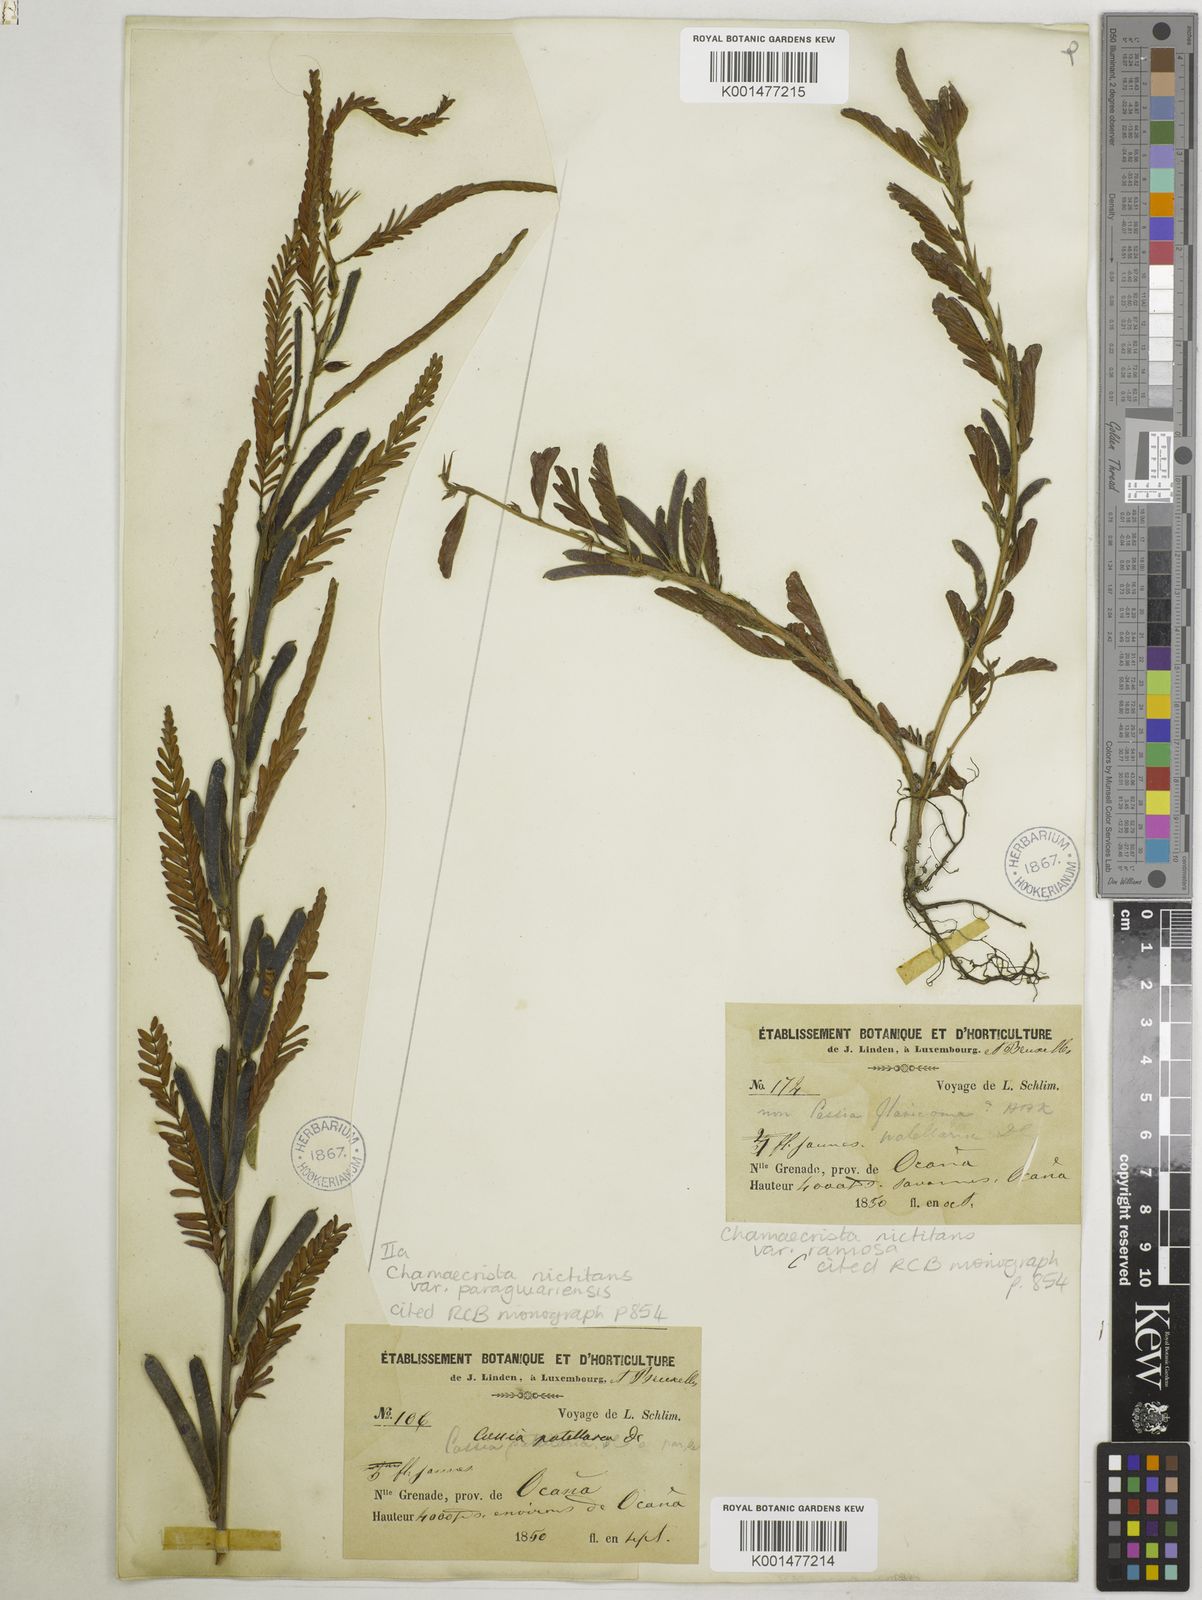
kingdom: Plantae
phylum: Tracheophyta
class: Magnoliopsida
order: Fabales
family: Fabaceae
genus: Chamaecrista
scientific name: Chamaecrista nictitans
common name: Sensitive cassia
